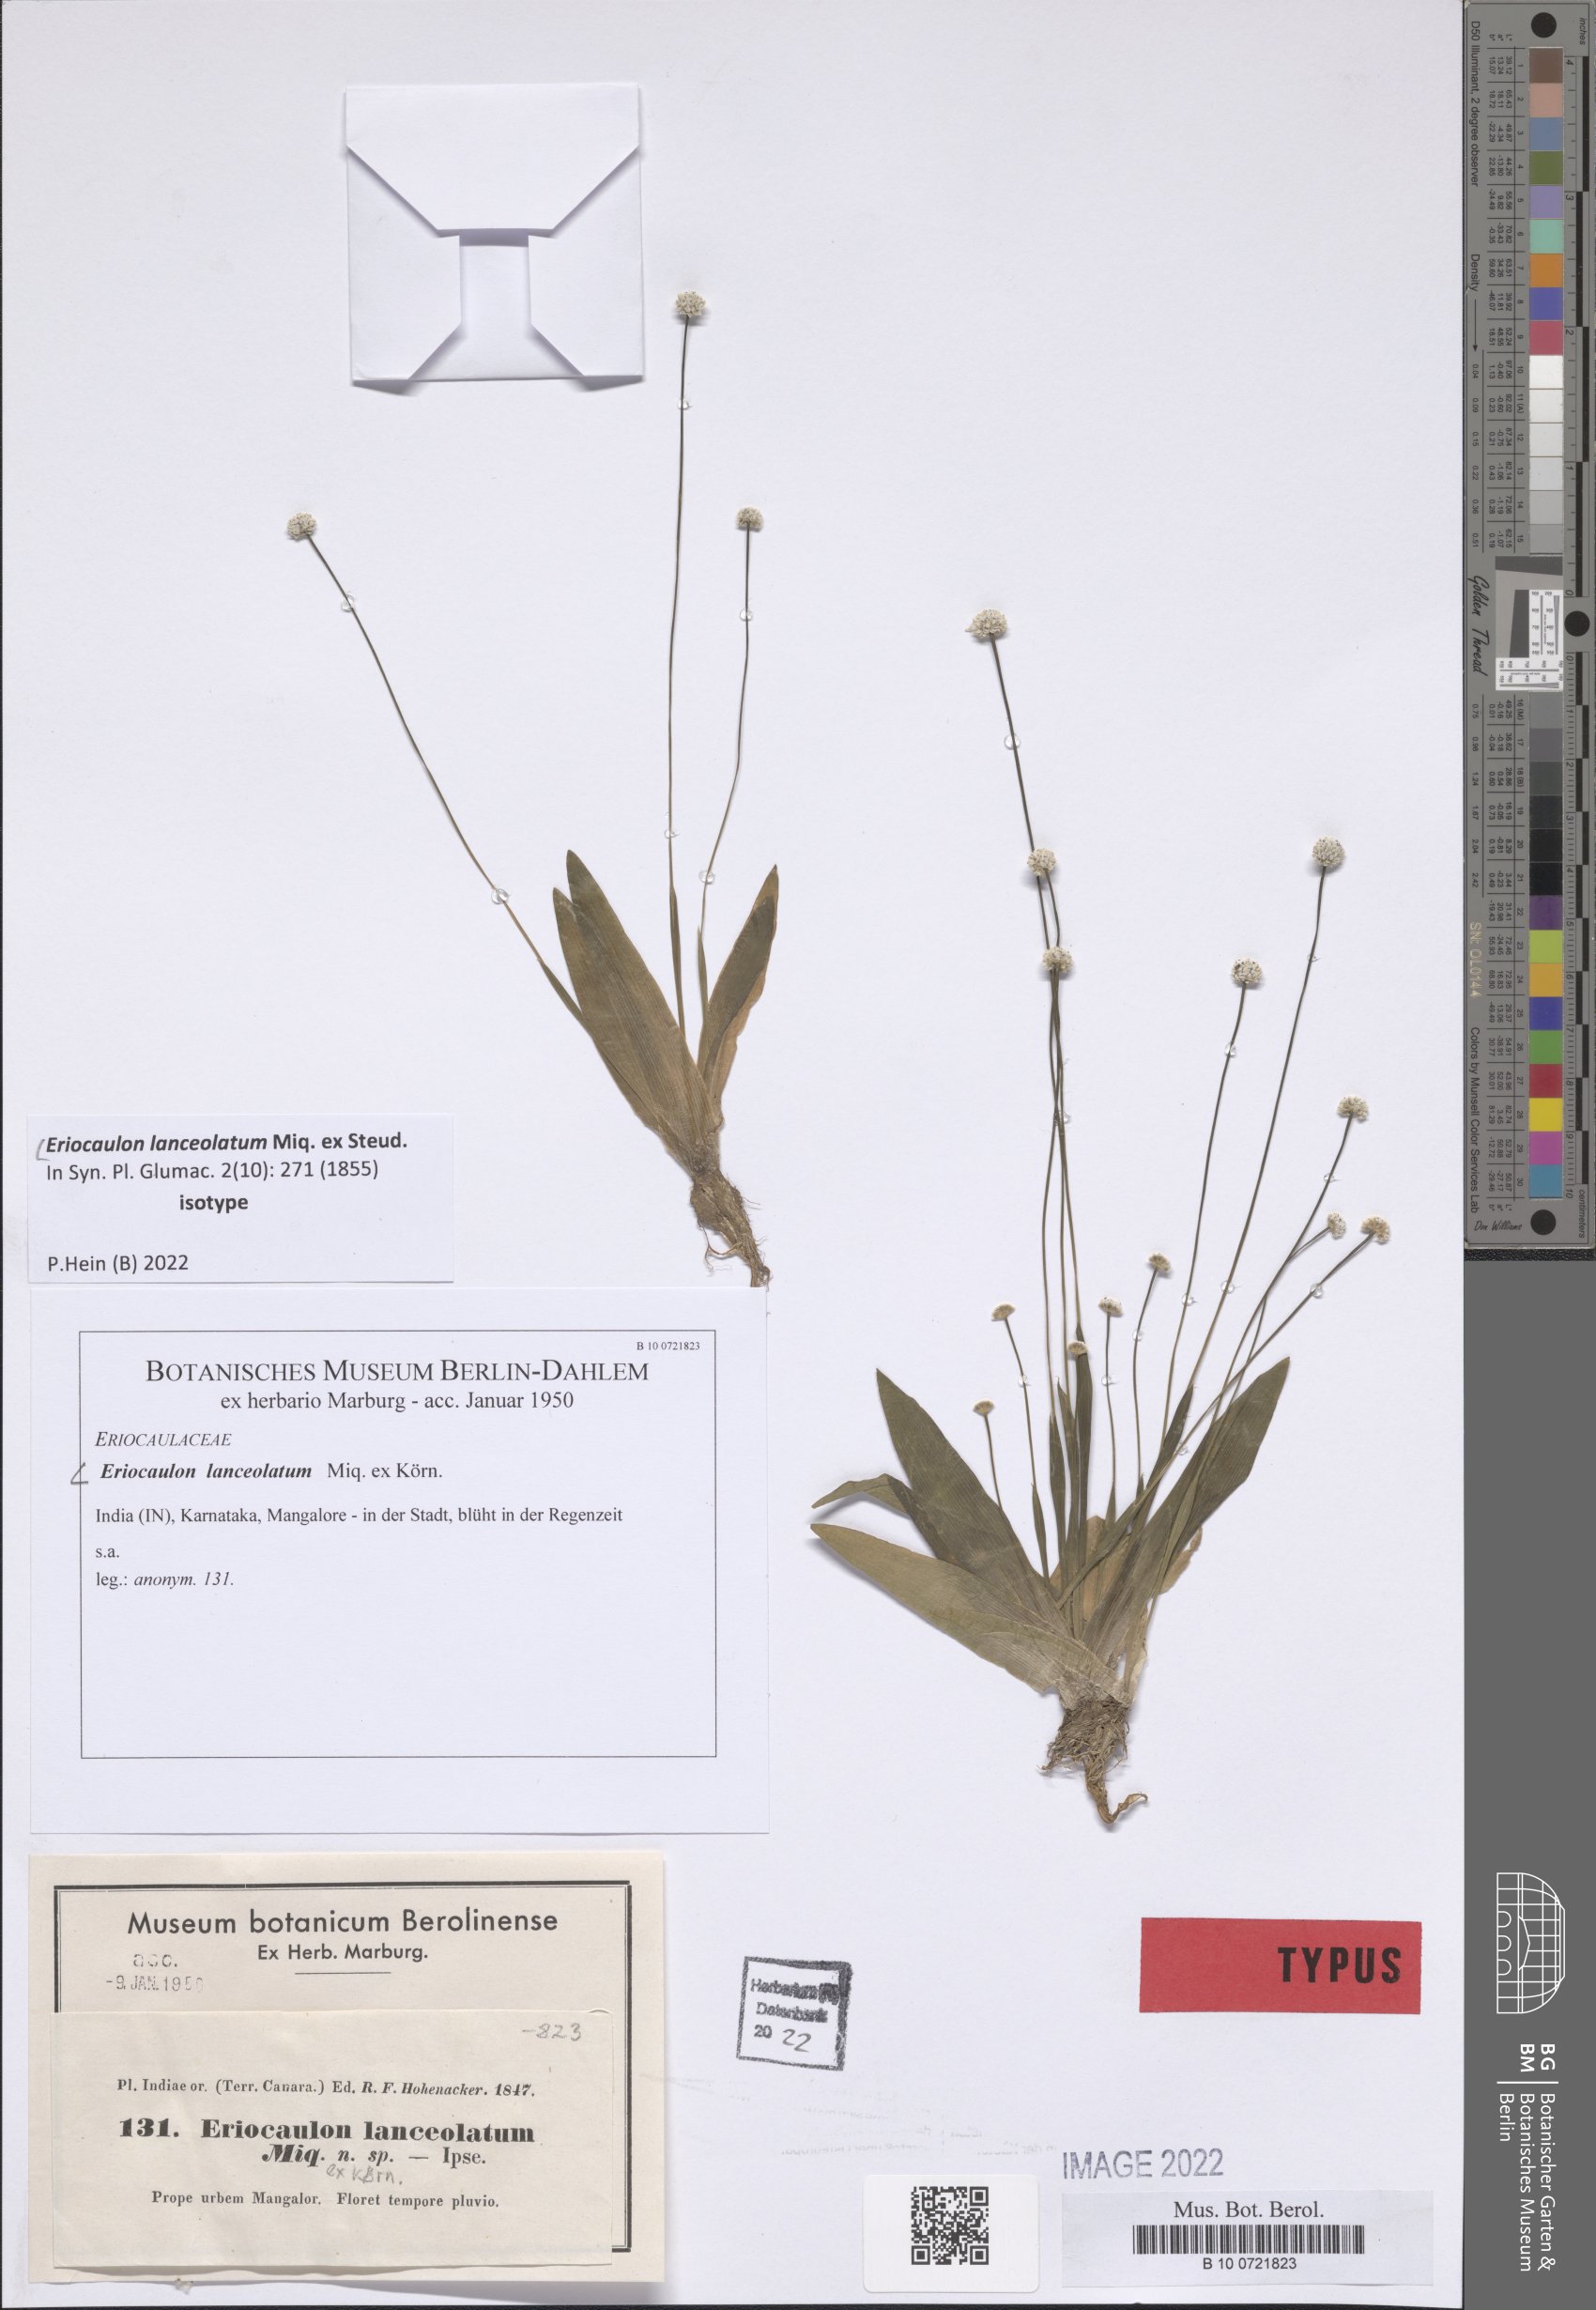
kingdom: Plantae
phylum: Tracheophyta
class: Liliopsida
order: Poales
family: Eriocaulaceae
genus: Eriocaulon
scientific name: Eriocaulon lanceolatum
